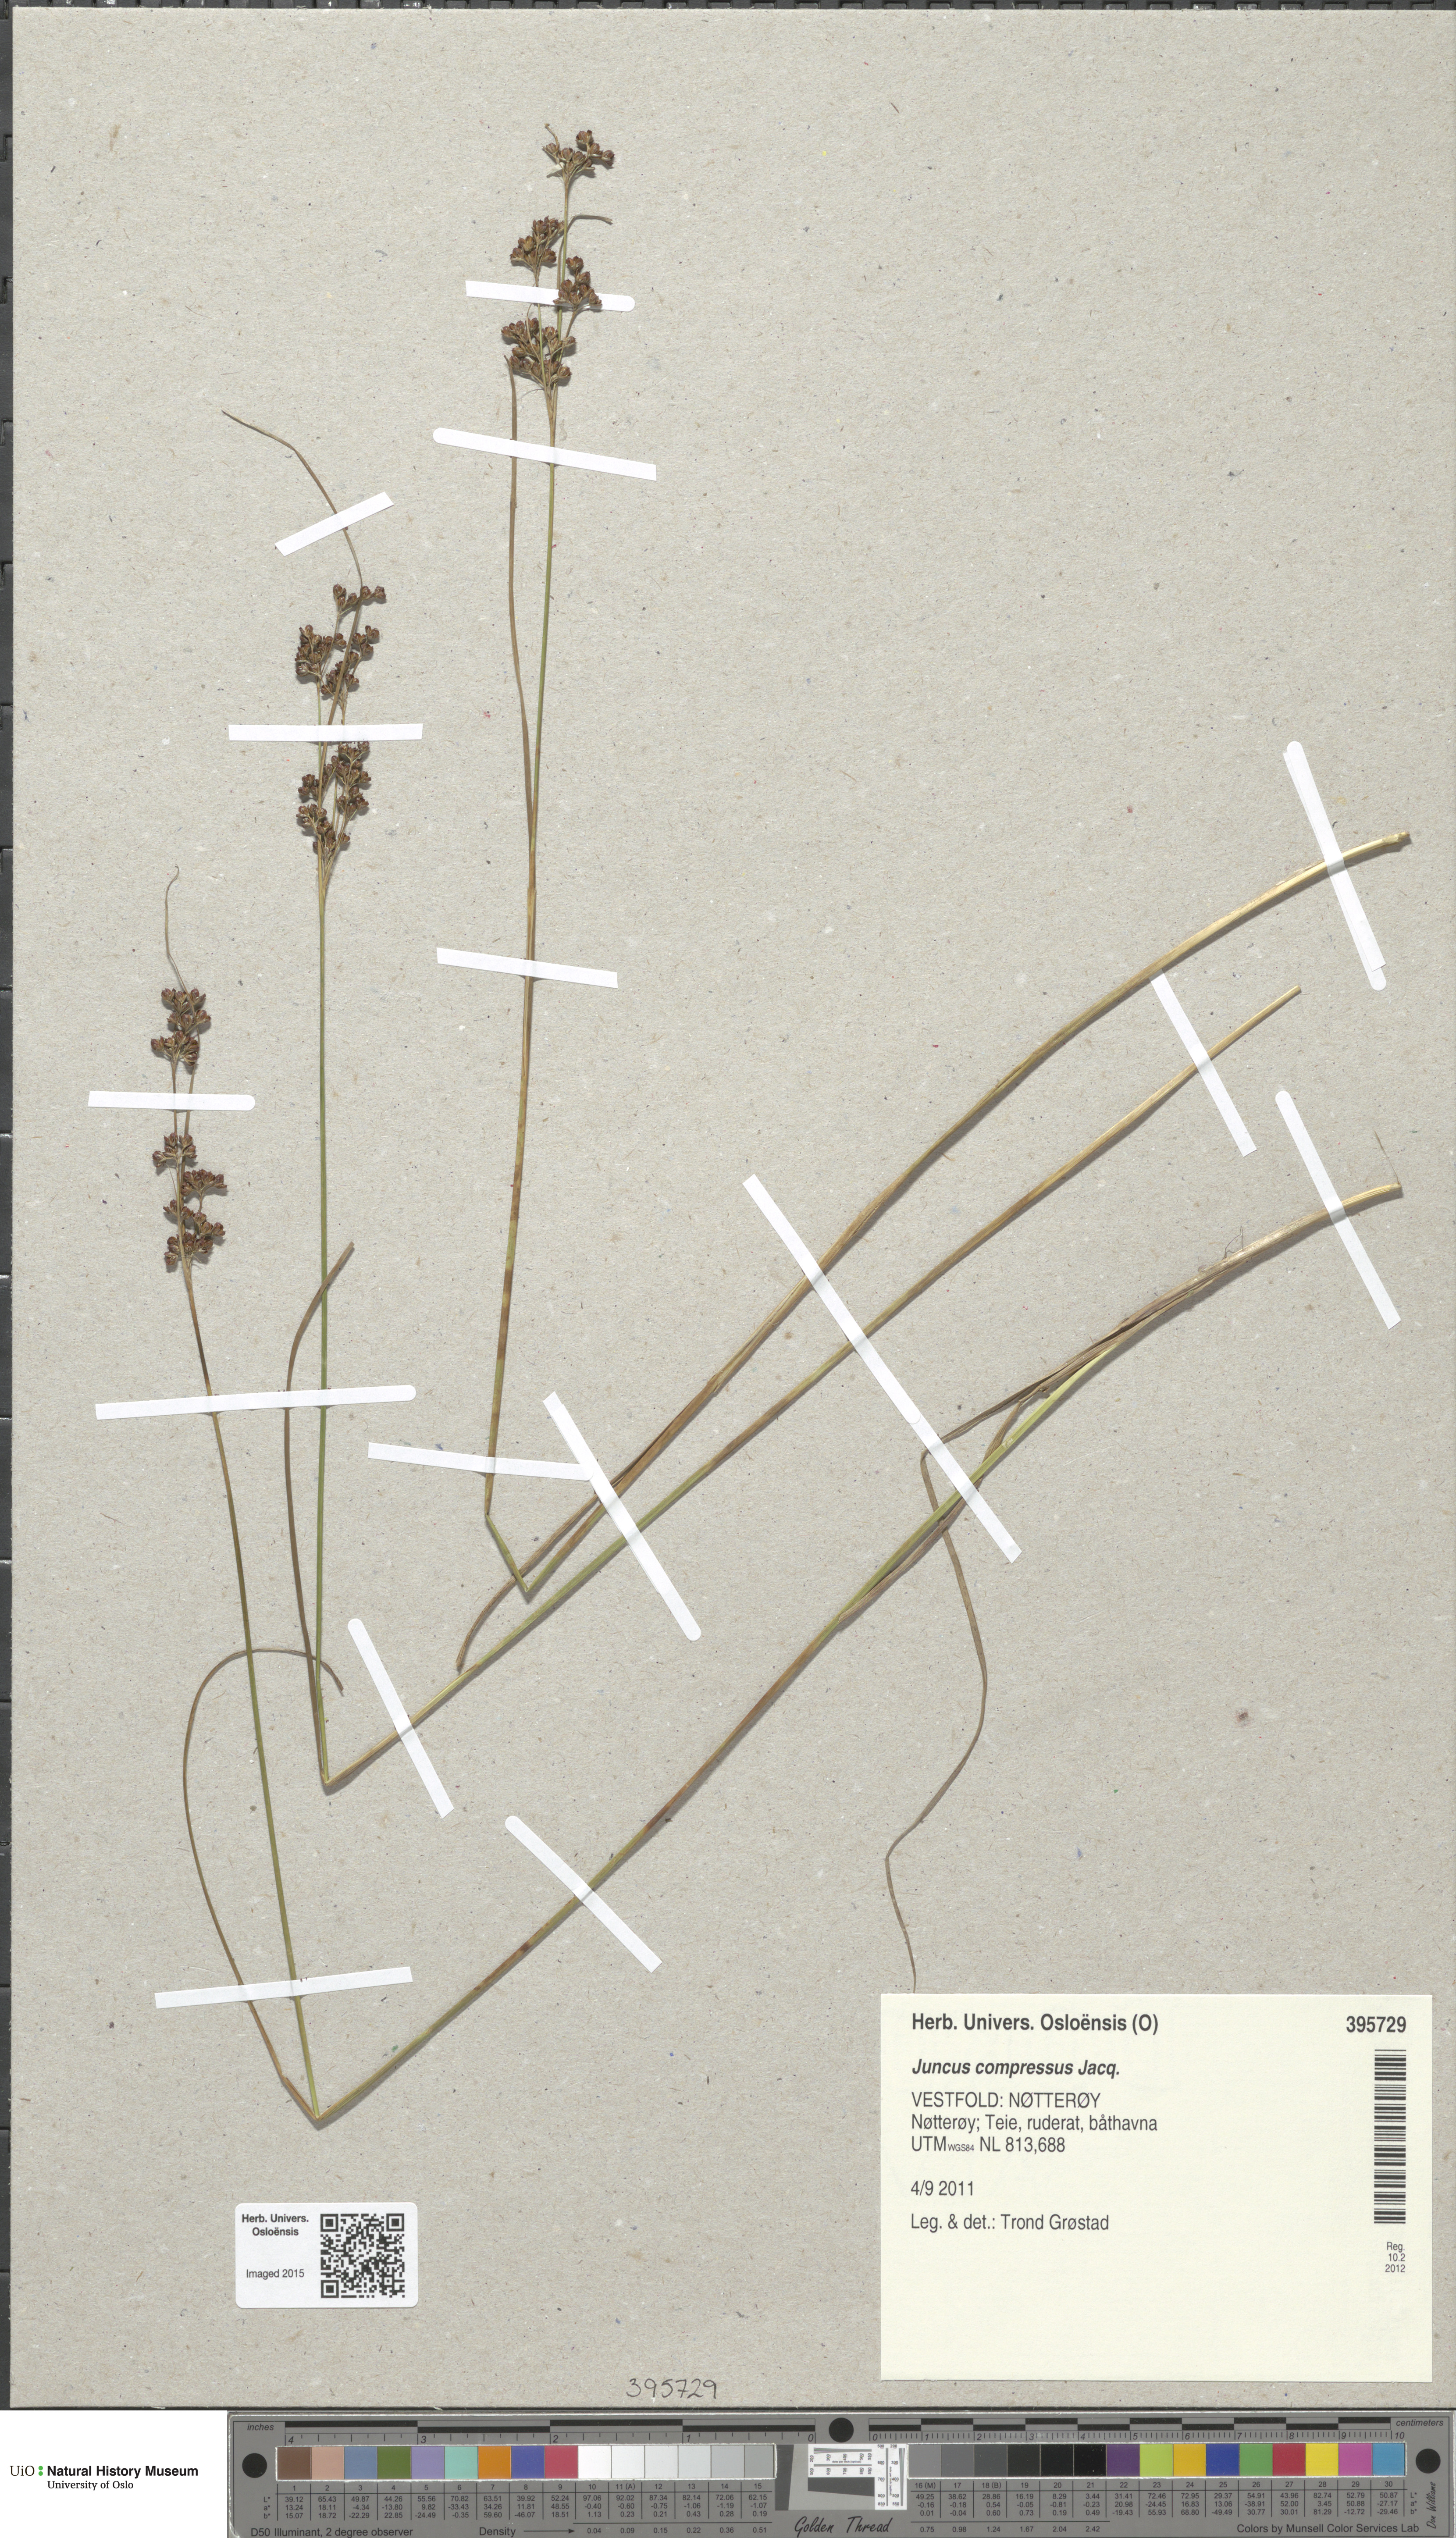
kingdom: Plantae
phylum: Tracheophyta
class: Liliopsida
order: Poales
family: Juncaceae
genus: Juncus
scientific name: Juncus compressus
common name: Round-fruited rush
